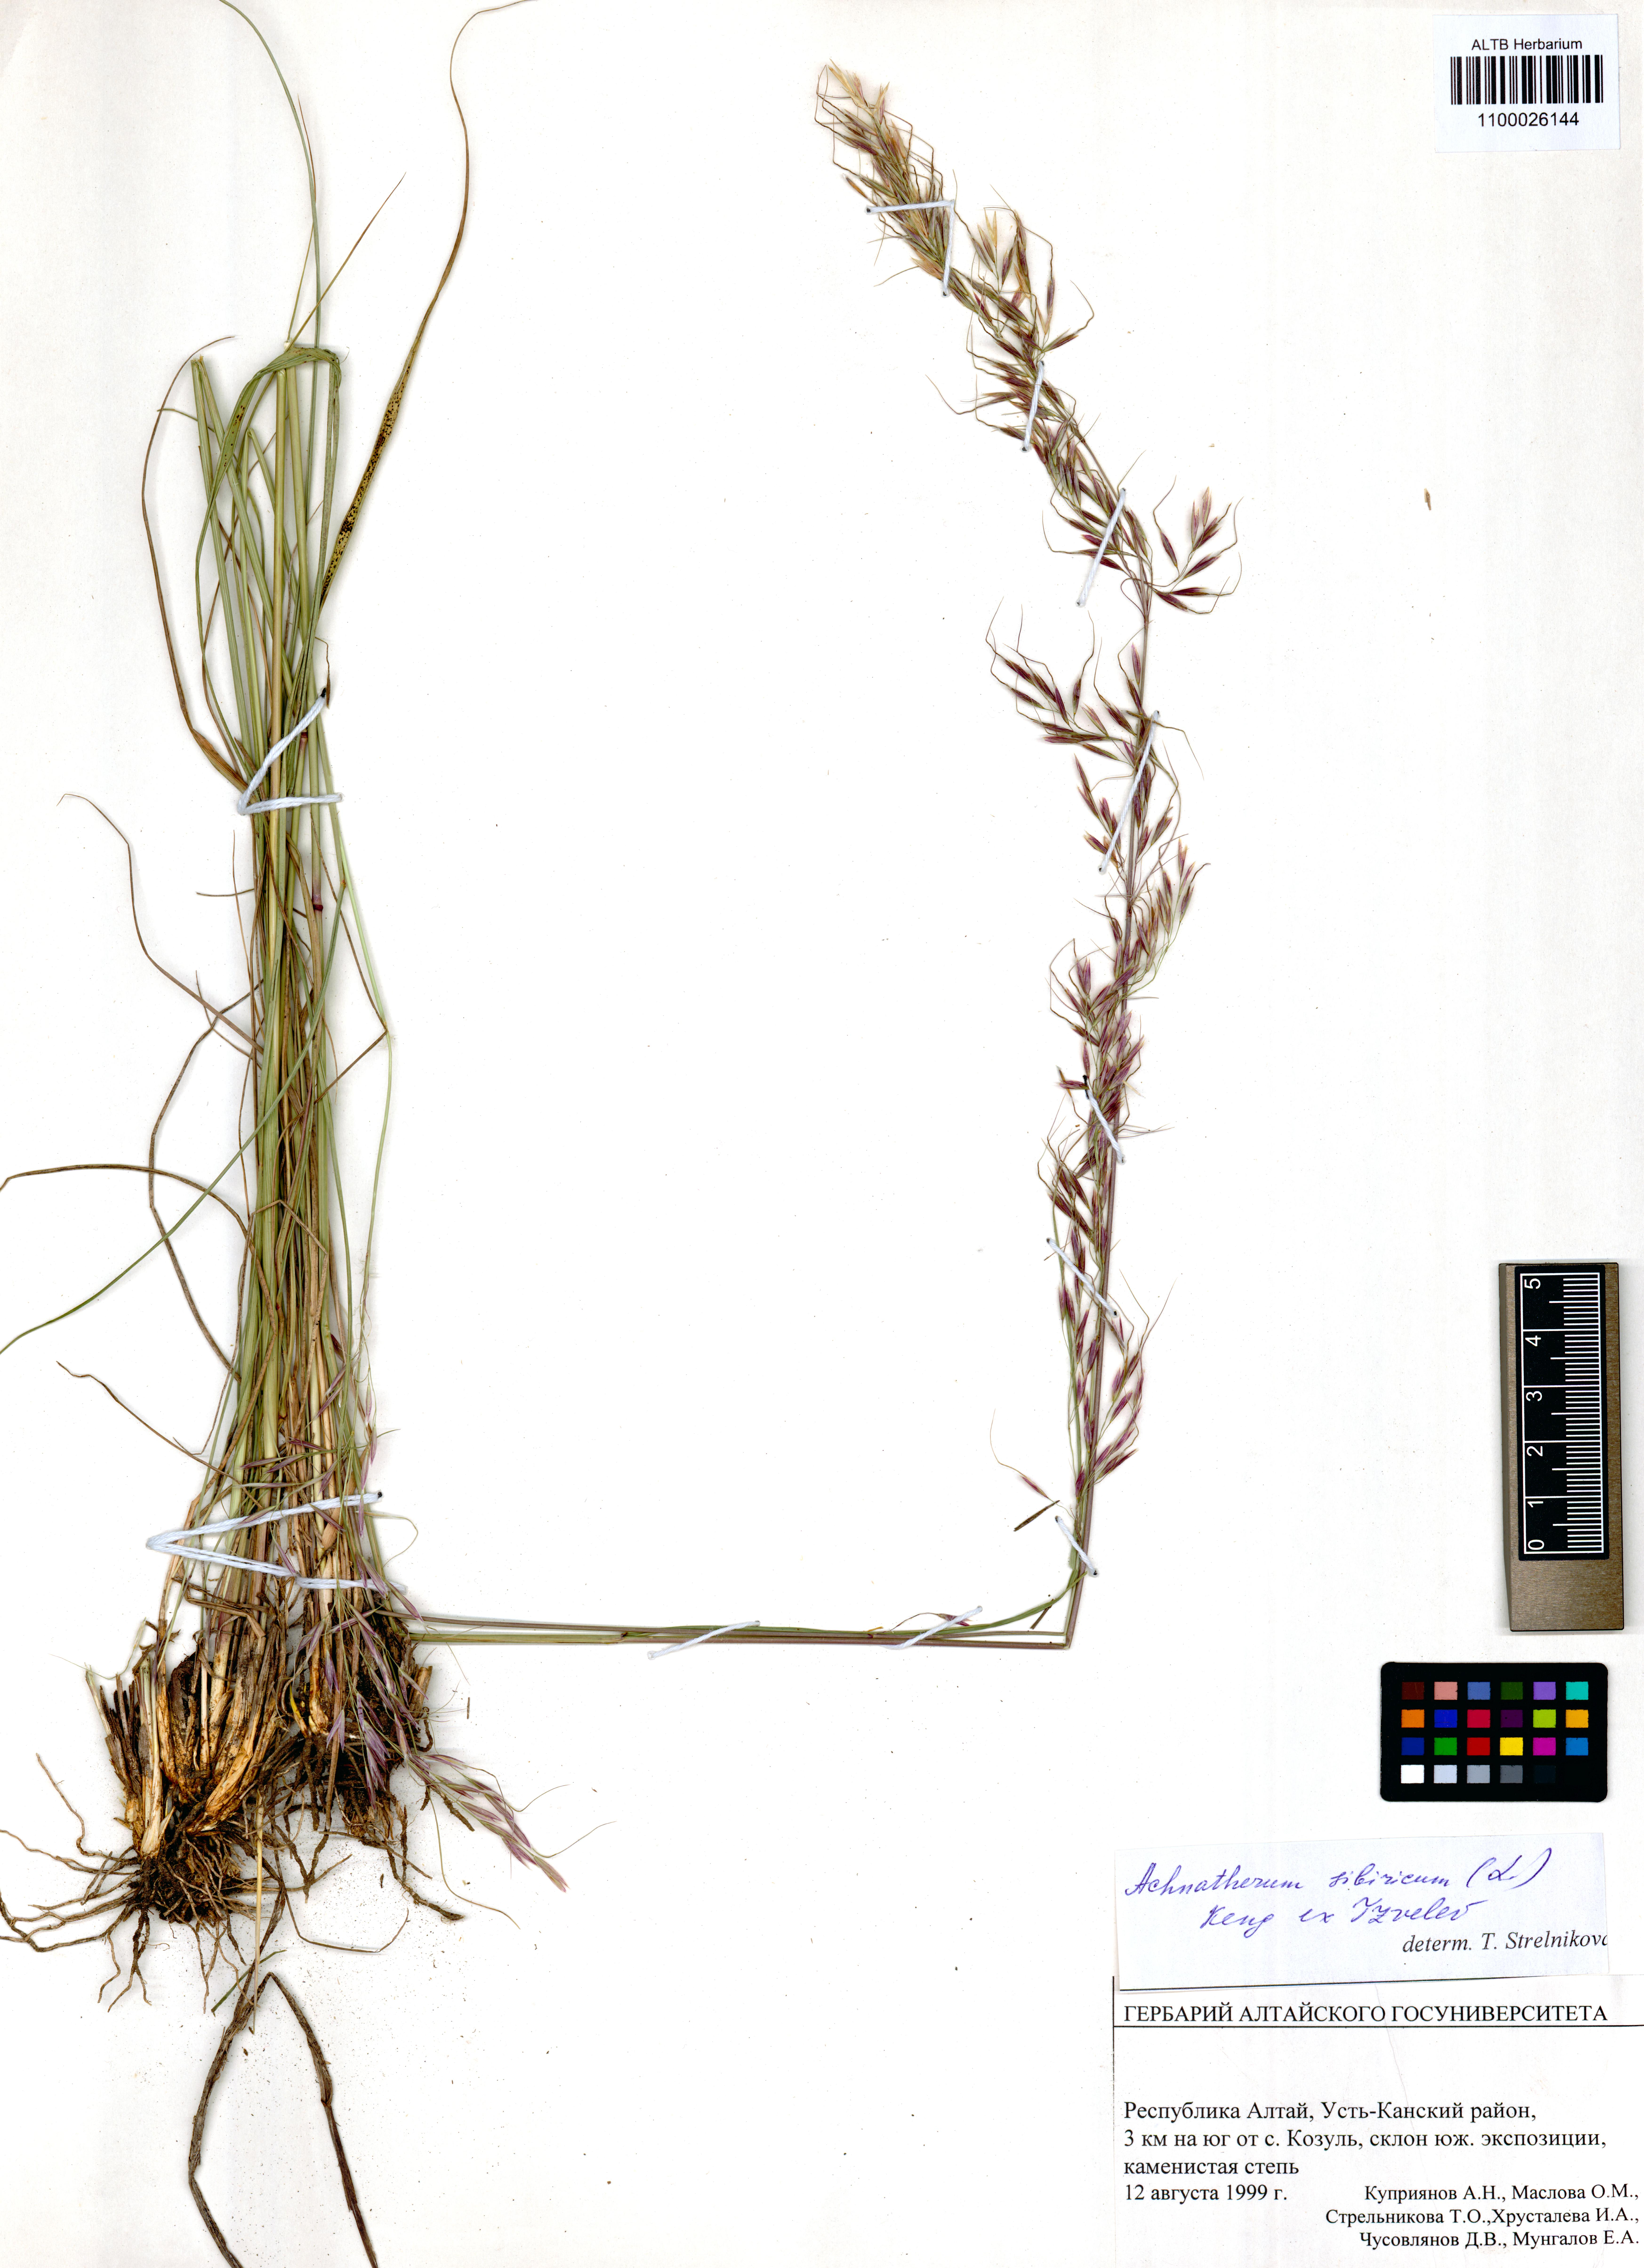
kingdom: Plantae
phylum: Tracheophyta
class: Liliopsida
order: Poales
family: Poaceae
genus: Achnatherum
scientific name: Achnatherum sibiricum
